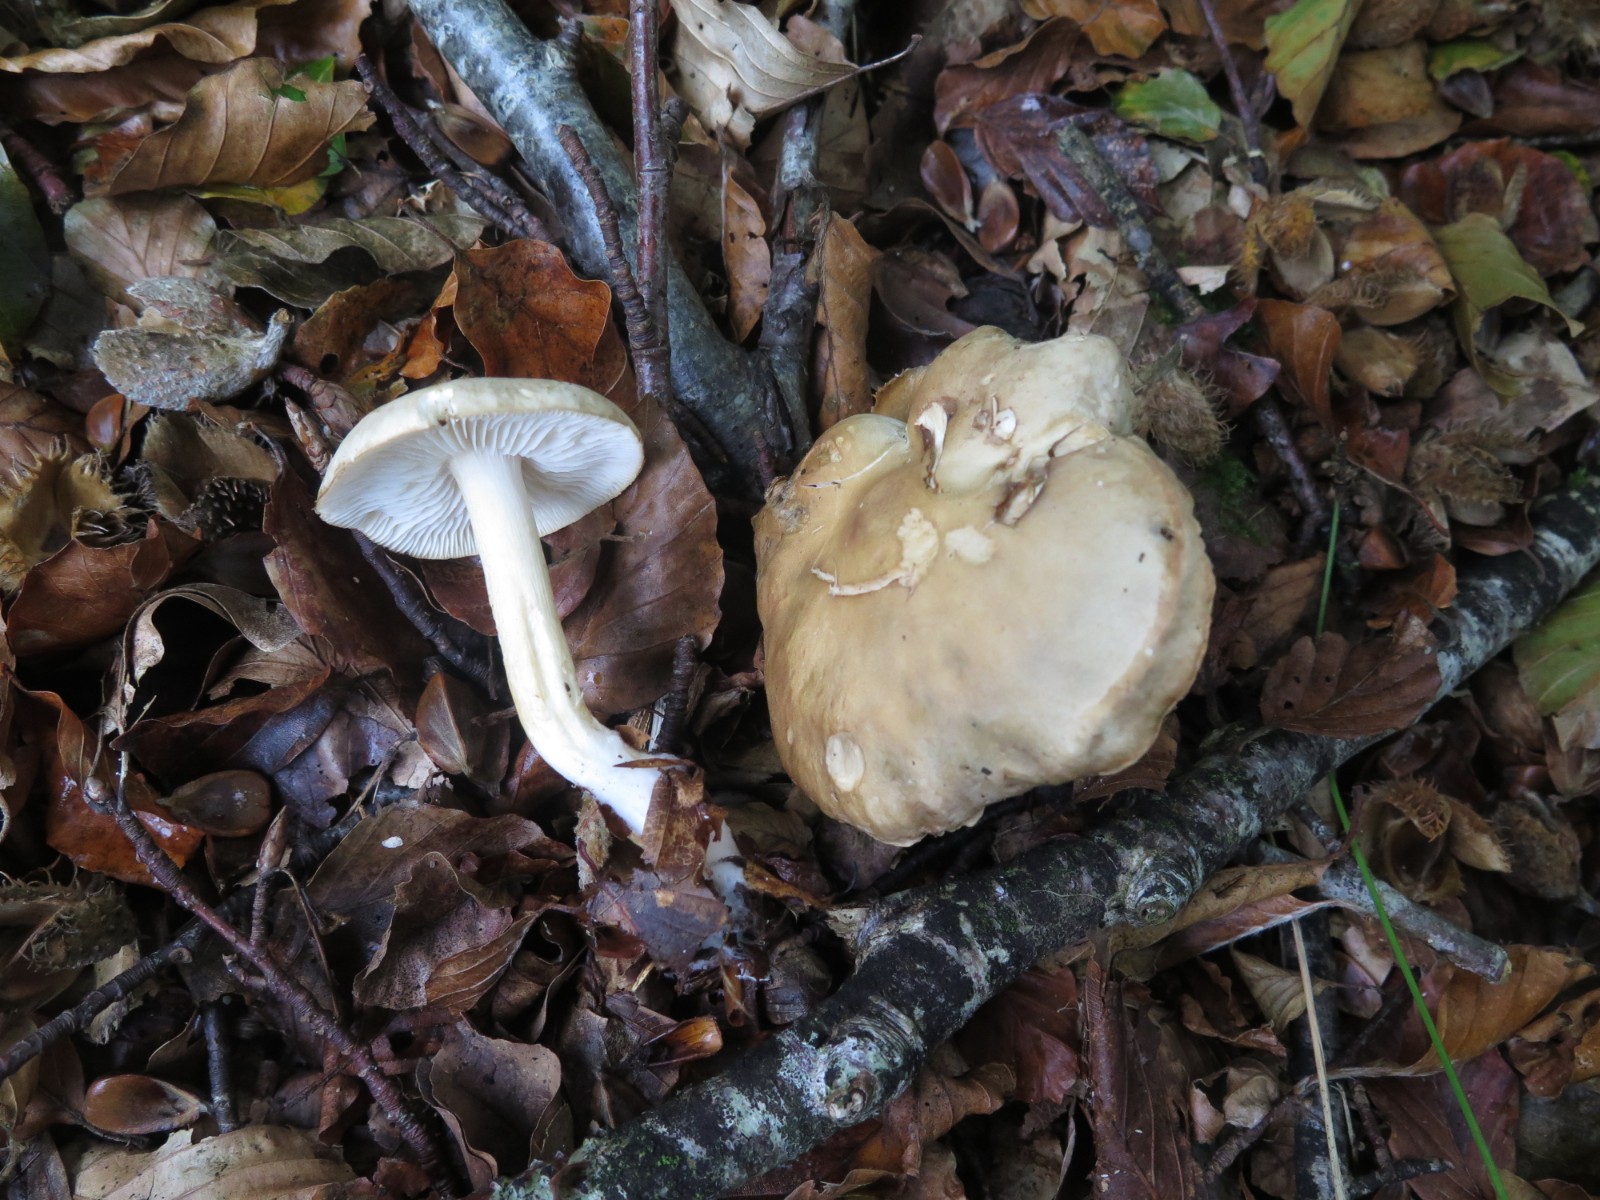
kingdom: Fungi
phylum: Basidiomycota
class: Agaricomycetes
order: Agaricales
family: Tricholomataceae
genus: Tricholoma
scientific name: Tricholoma lascivum
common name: stinkende ridderhat
